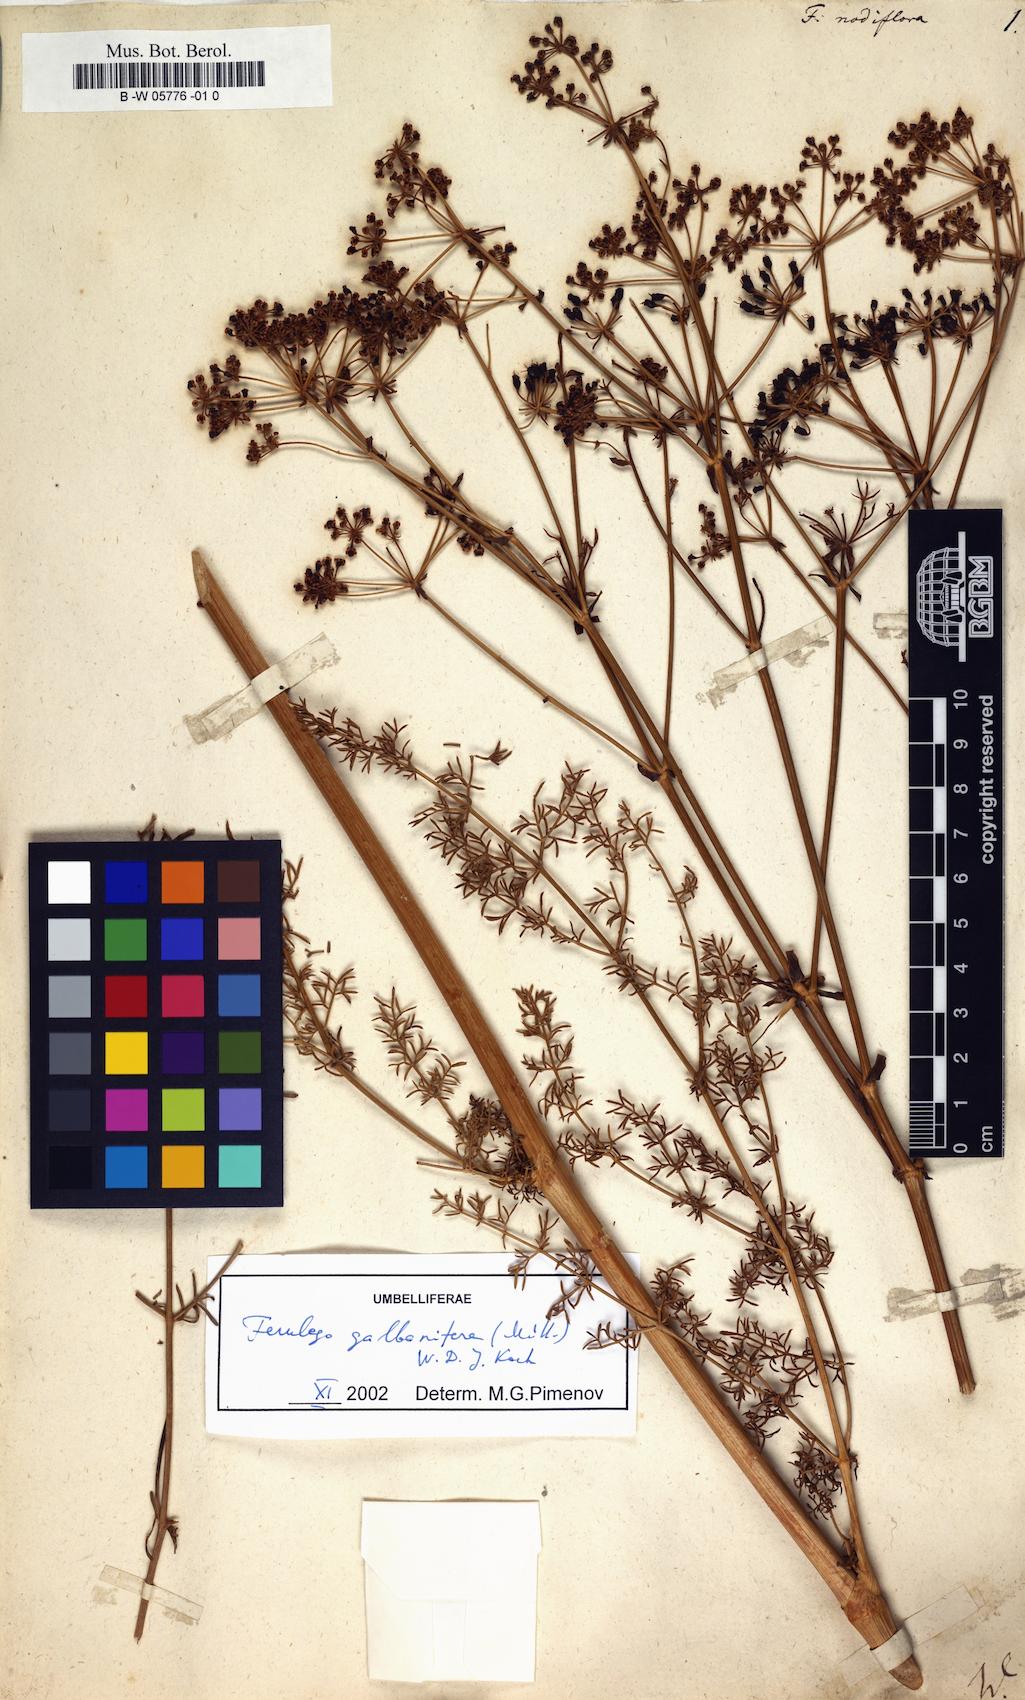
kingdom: Plantae
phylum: Tracheophyta
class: Magnoliopsida
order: Apiales
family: Apiaceae
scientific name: Apiaceae
